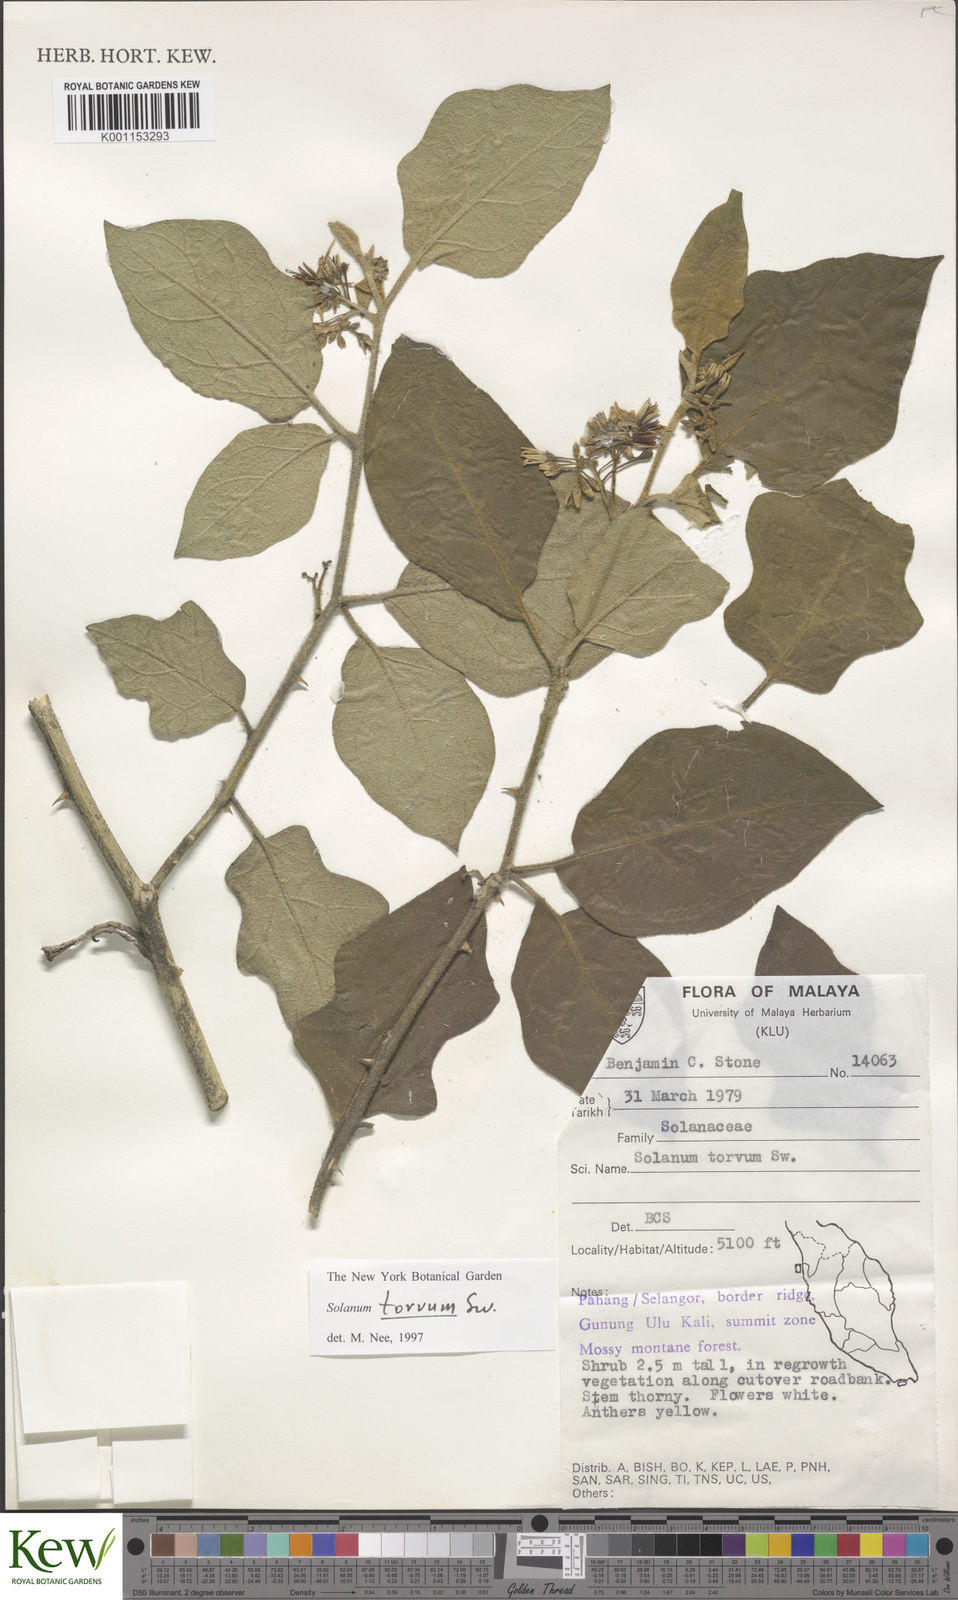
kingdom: Plantae
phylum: Tracheophyta
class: Magnoliopsida
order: Solanales
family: Solanaceae
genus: Solanum
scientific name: Solanum torvum
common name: Turkey berry
